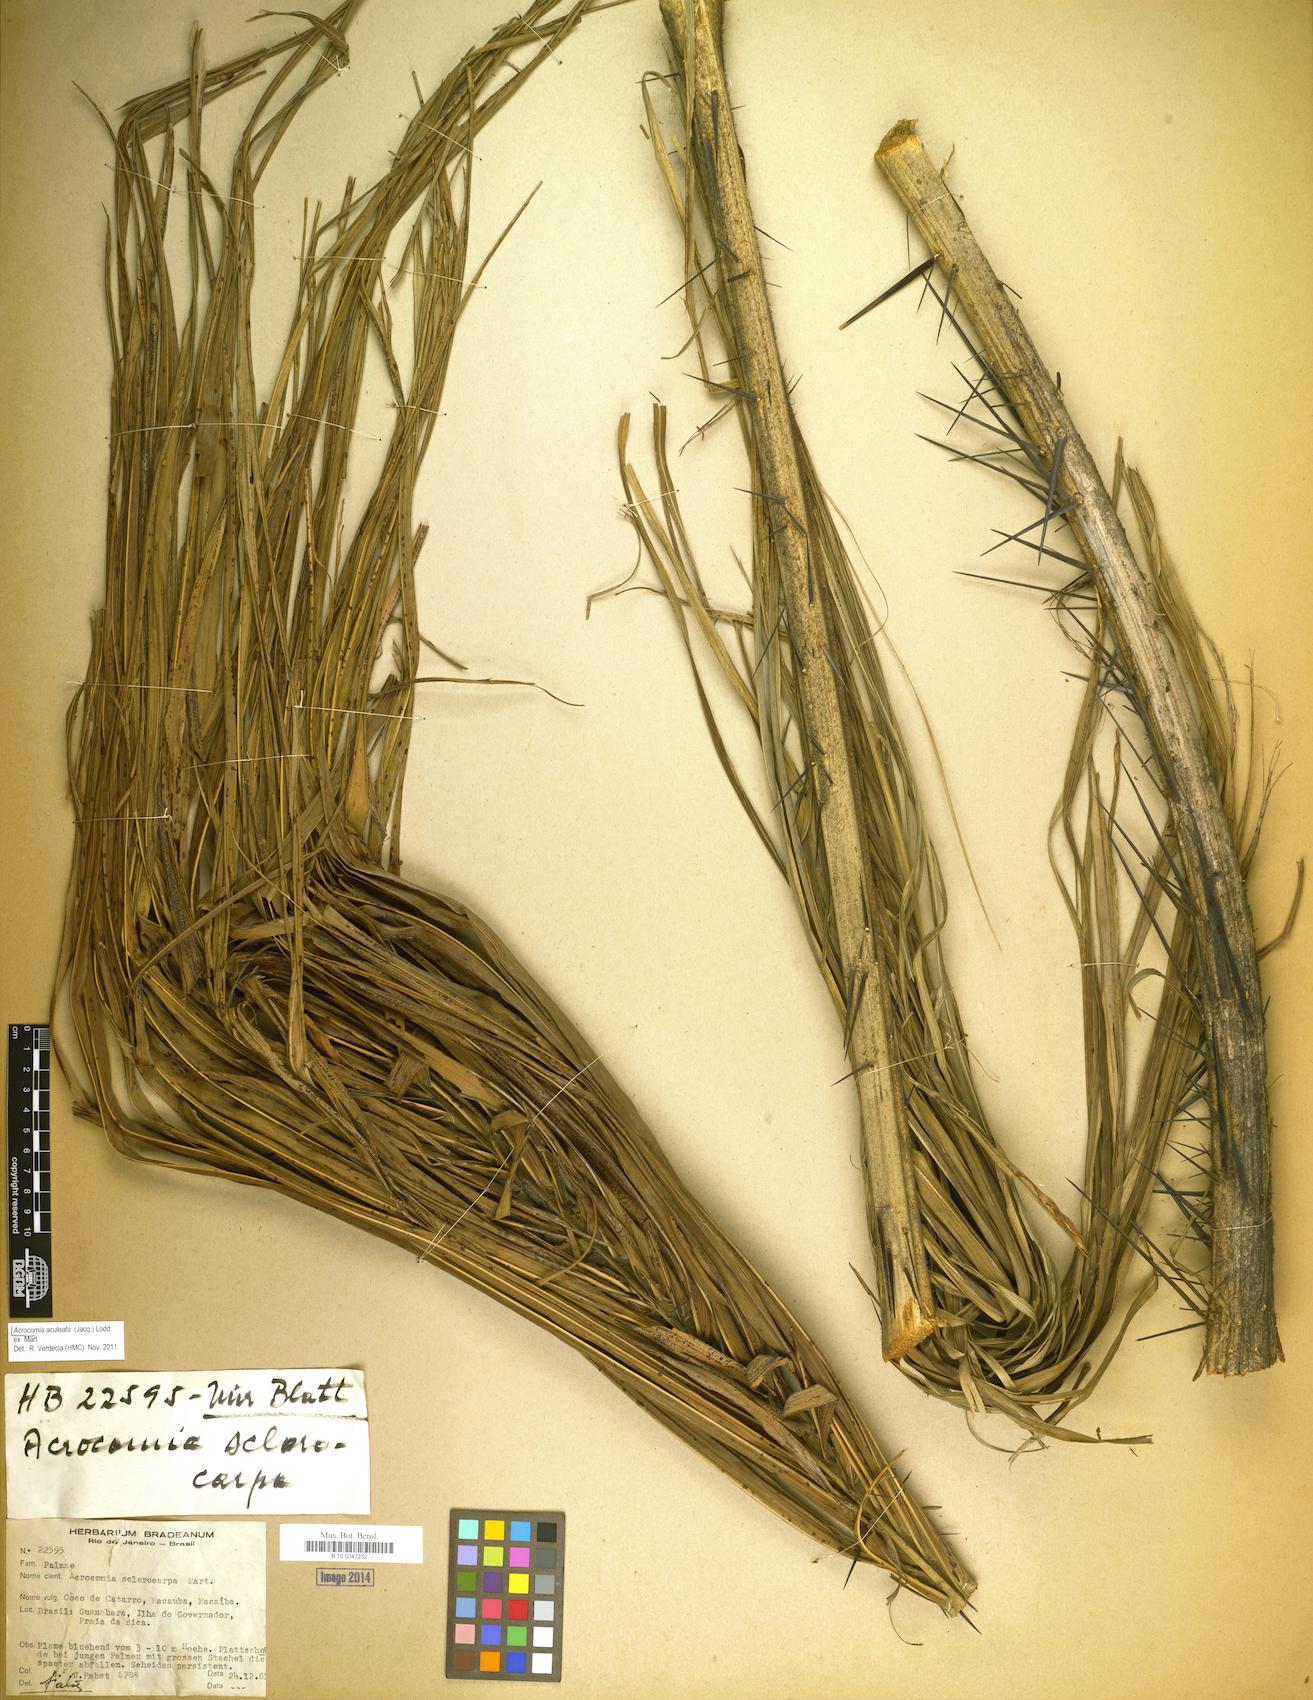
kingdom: Plantae
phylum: Tracheophyta
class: Liliopsida
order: Arecales
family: Arecaceae
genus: Acrocomia
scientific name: Acrocomia aculeata
